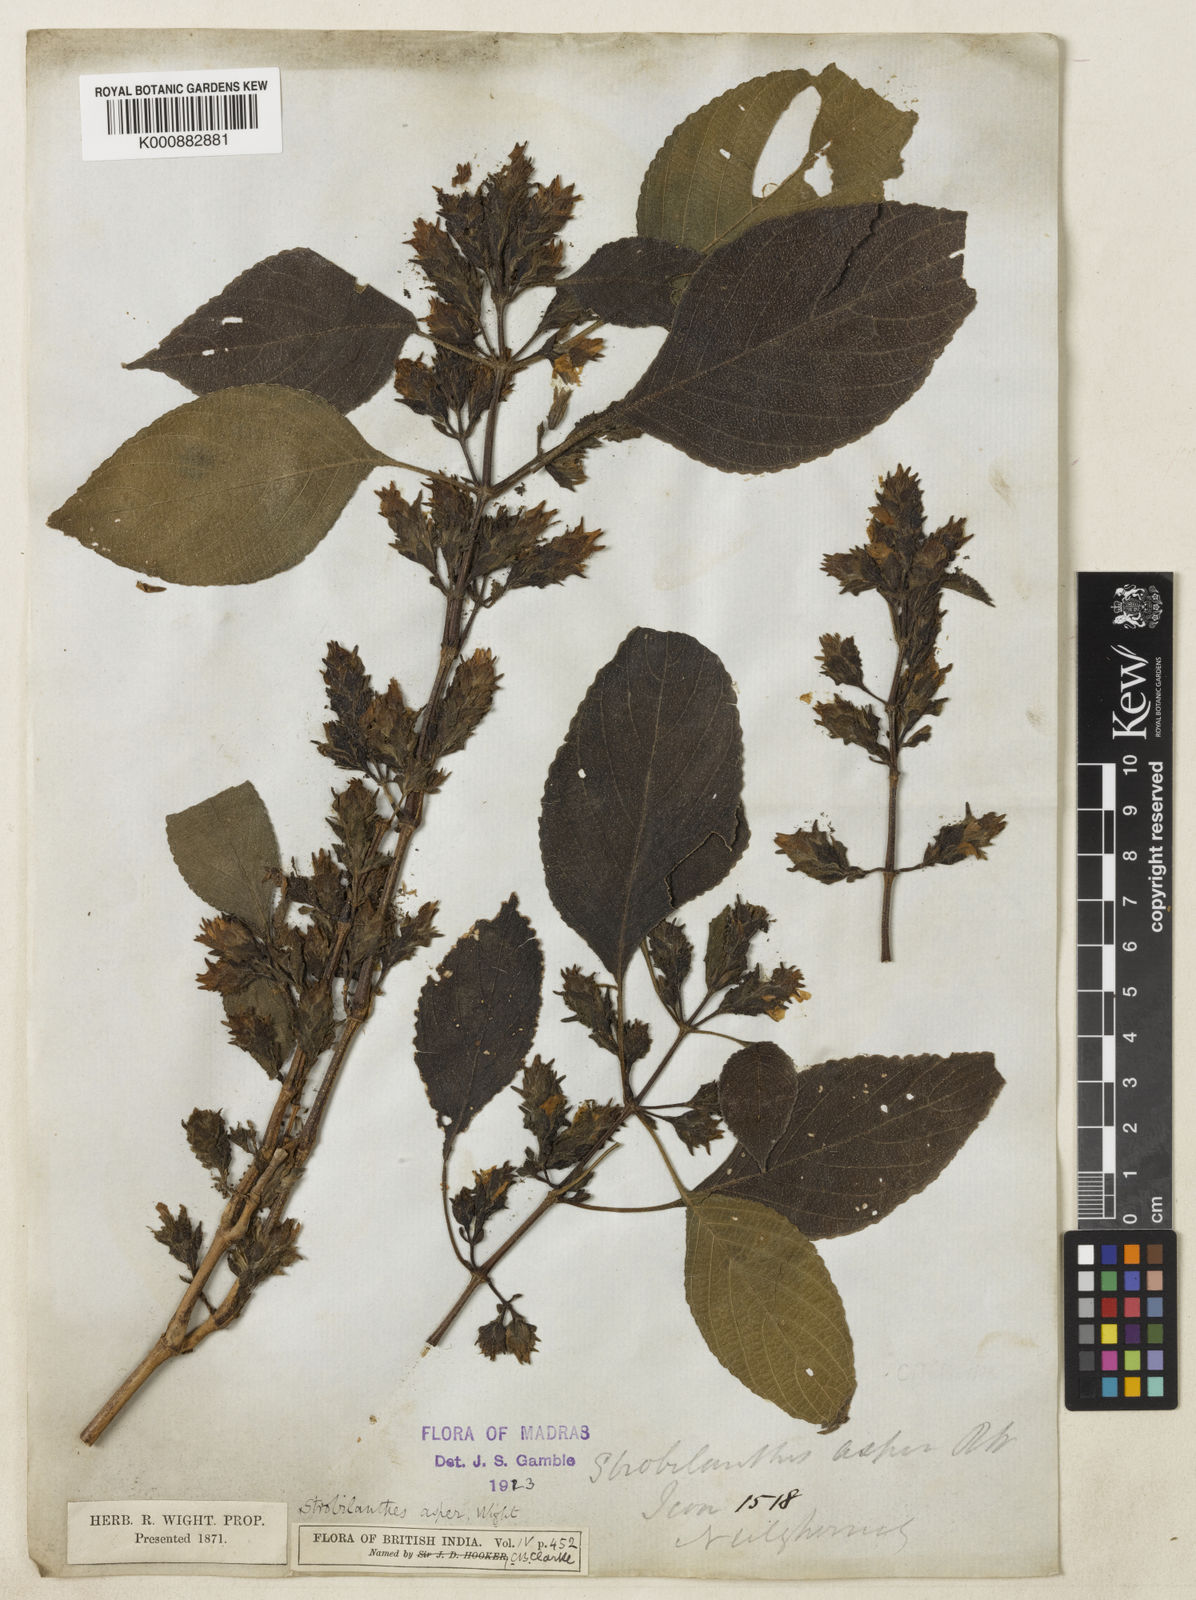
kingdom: Plantae
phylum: Tracheophyta
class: Magnoliopsida
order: Lamiales
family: Acanthaceae
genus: Strobilanthes
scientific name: Strobilanthes ciliata
